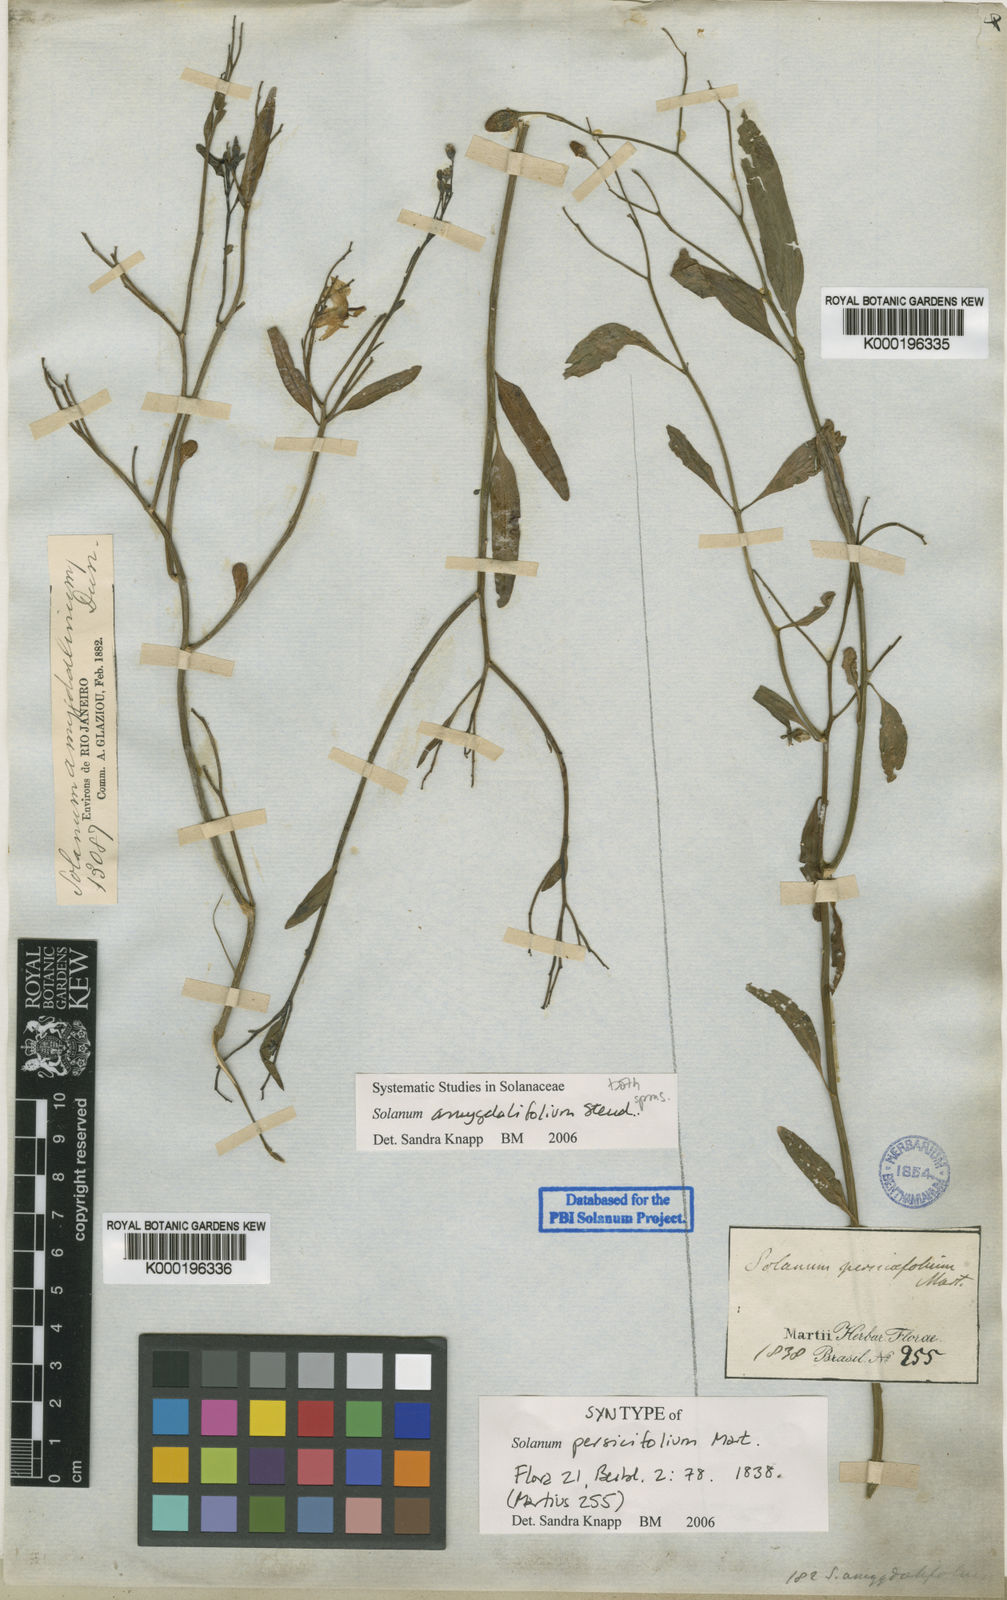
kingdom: Plantae
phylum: Tracheophyta
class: Magnoliopsida
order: Solanales
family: Solanaceae
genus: Solanum
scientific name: Solanum amygdalifolium
